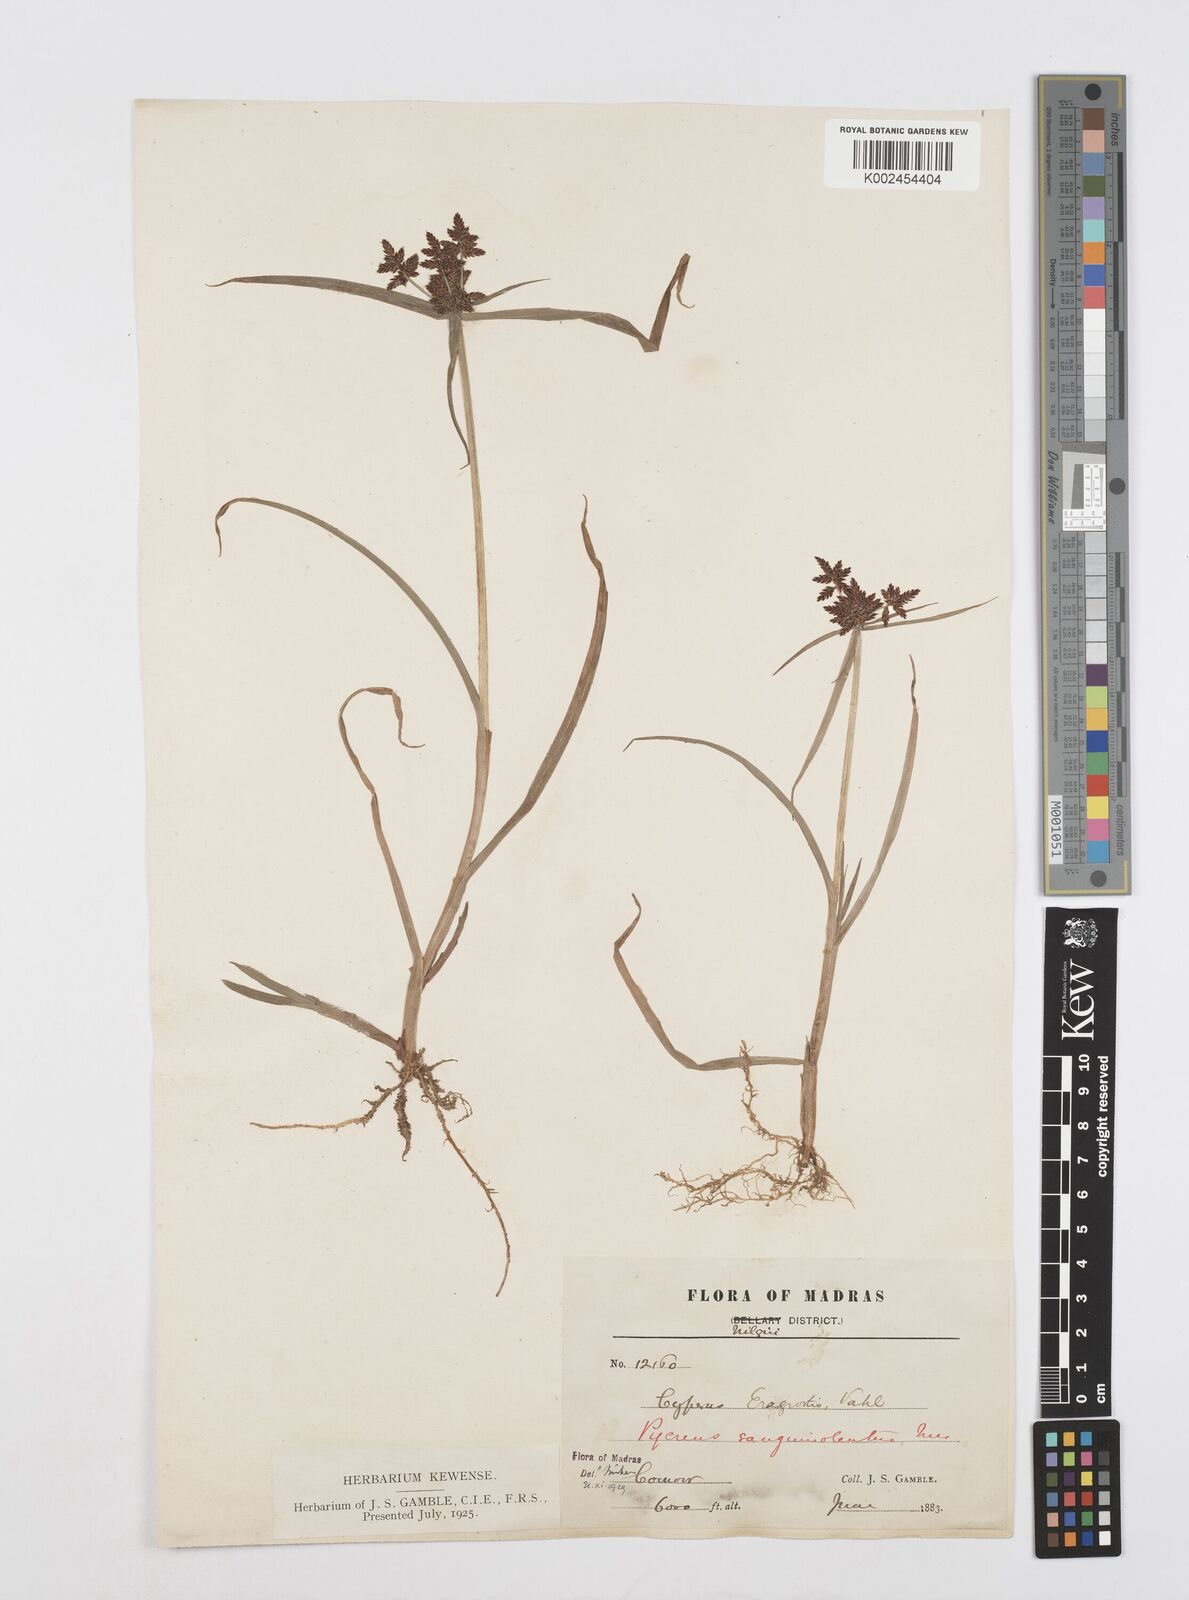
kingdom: Plantae
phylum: Tracheophyta
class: Liliopsida
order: Poales
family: Cyperaceae
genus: Cyperus
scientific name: Cyperus sanguinolentus
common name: Purpleglume flatsedge
